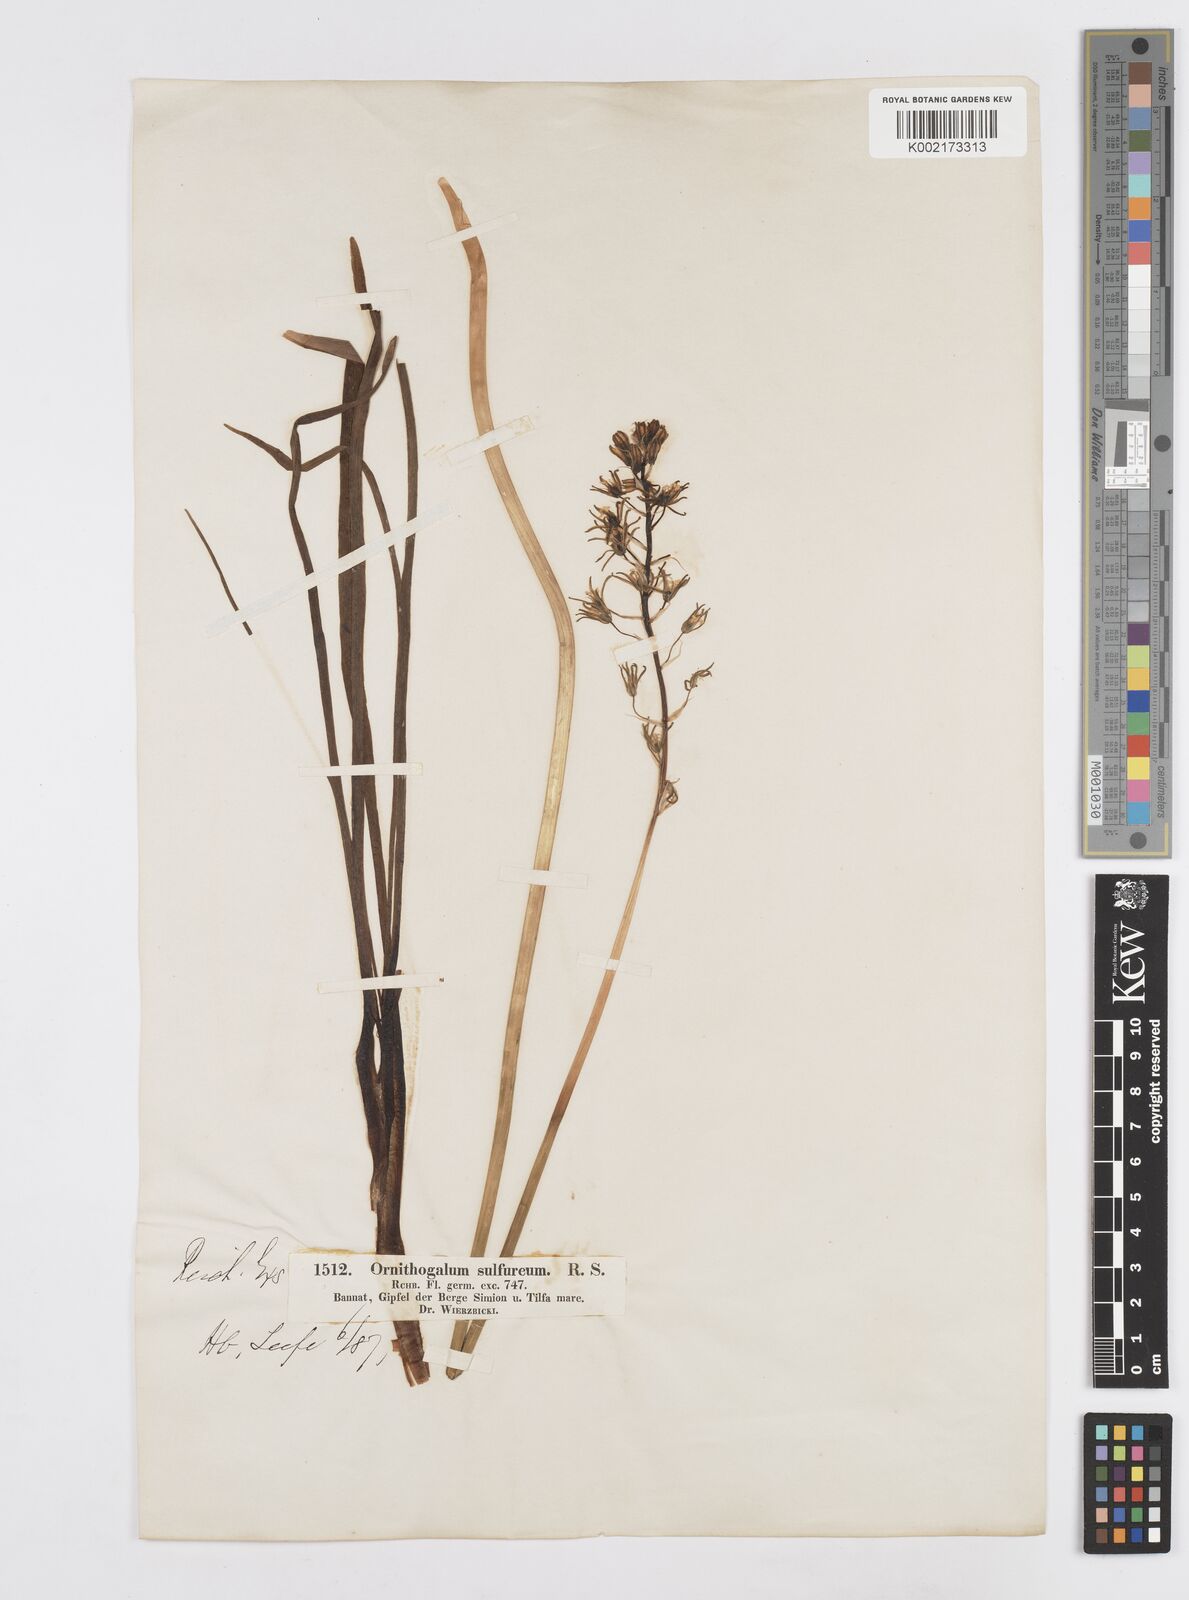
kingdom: Plantae
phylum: Tracheophyta
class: Liliopsida
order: Asparagales
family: Asparagaceae
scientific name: Asparagaceae
